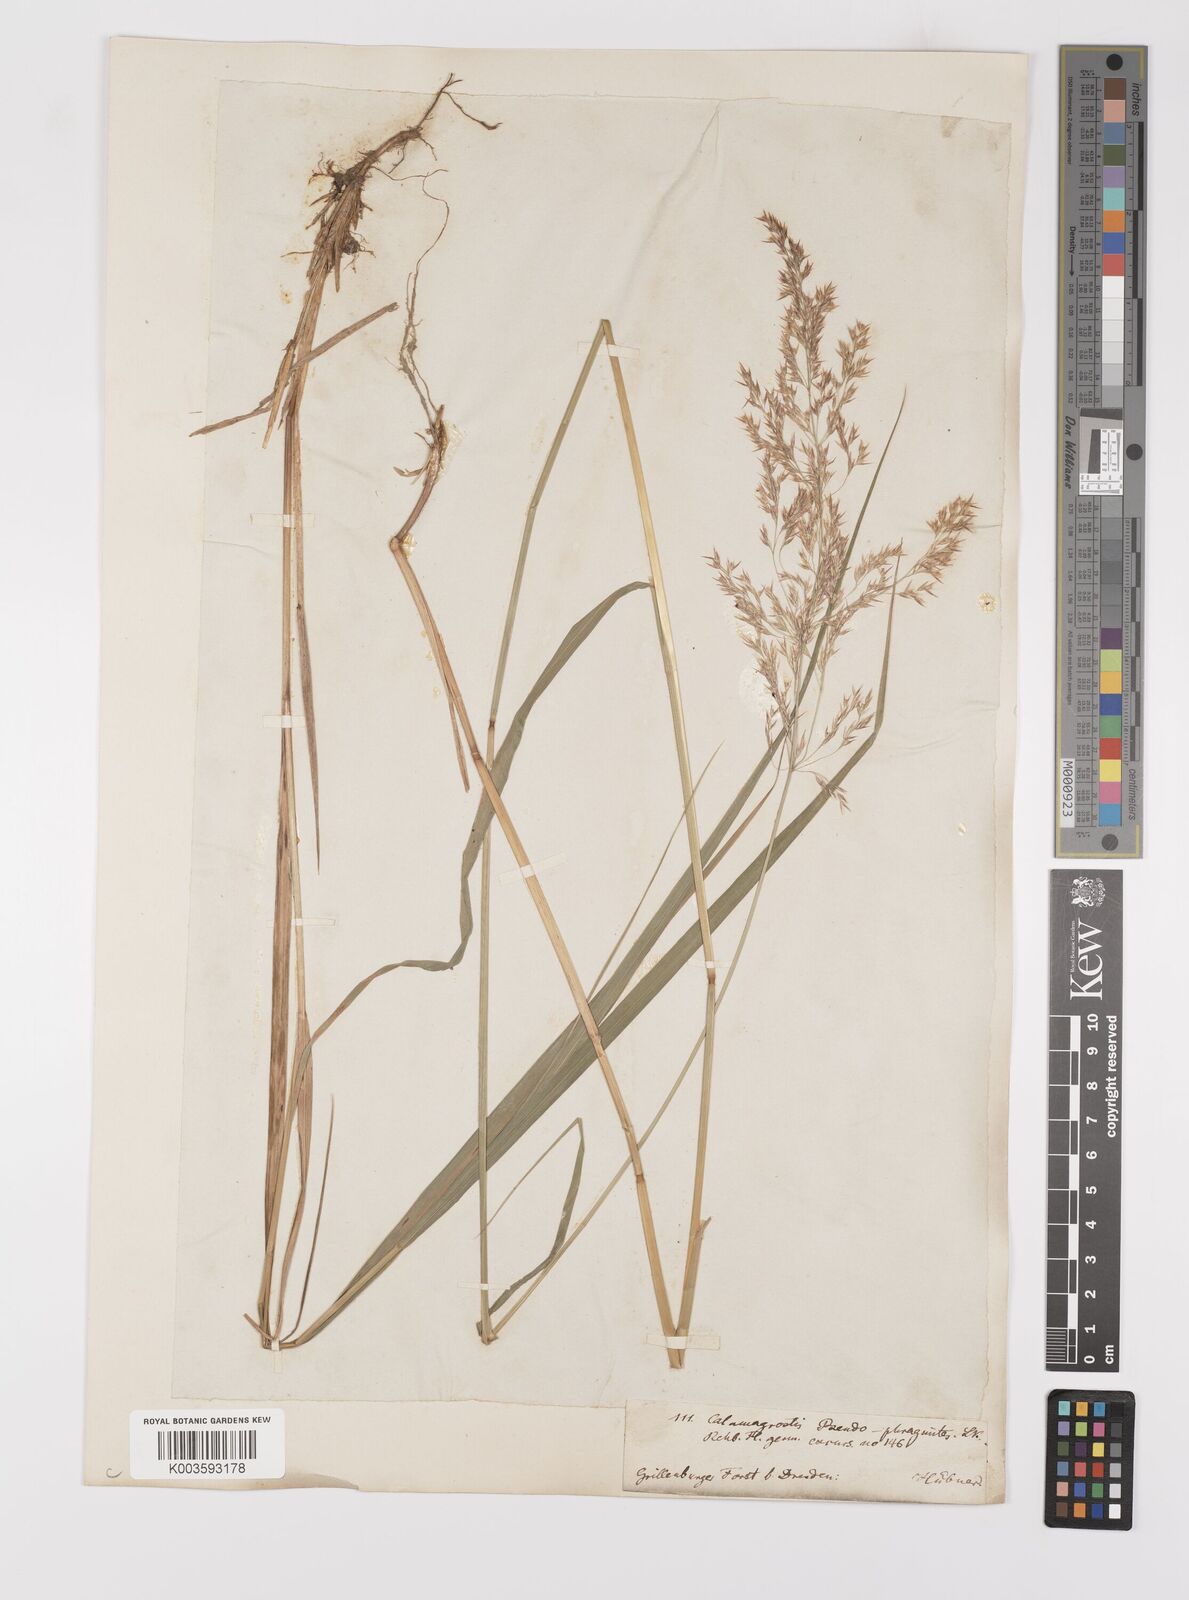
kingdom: Plantae
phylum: Tracheophyta
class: Liliopsida
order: Poales
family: Poaceae
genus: Calamagrostis
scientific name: Calamagrostis
